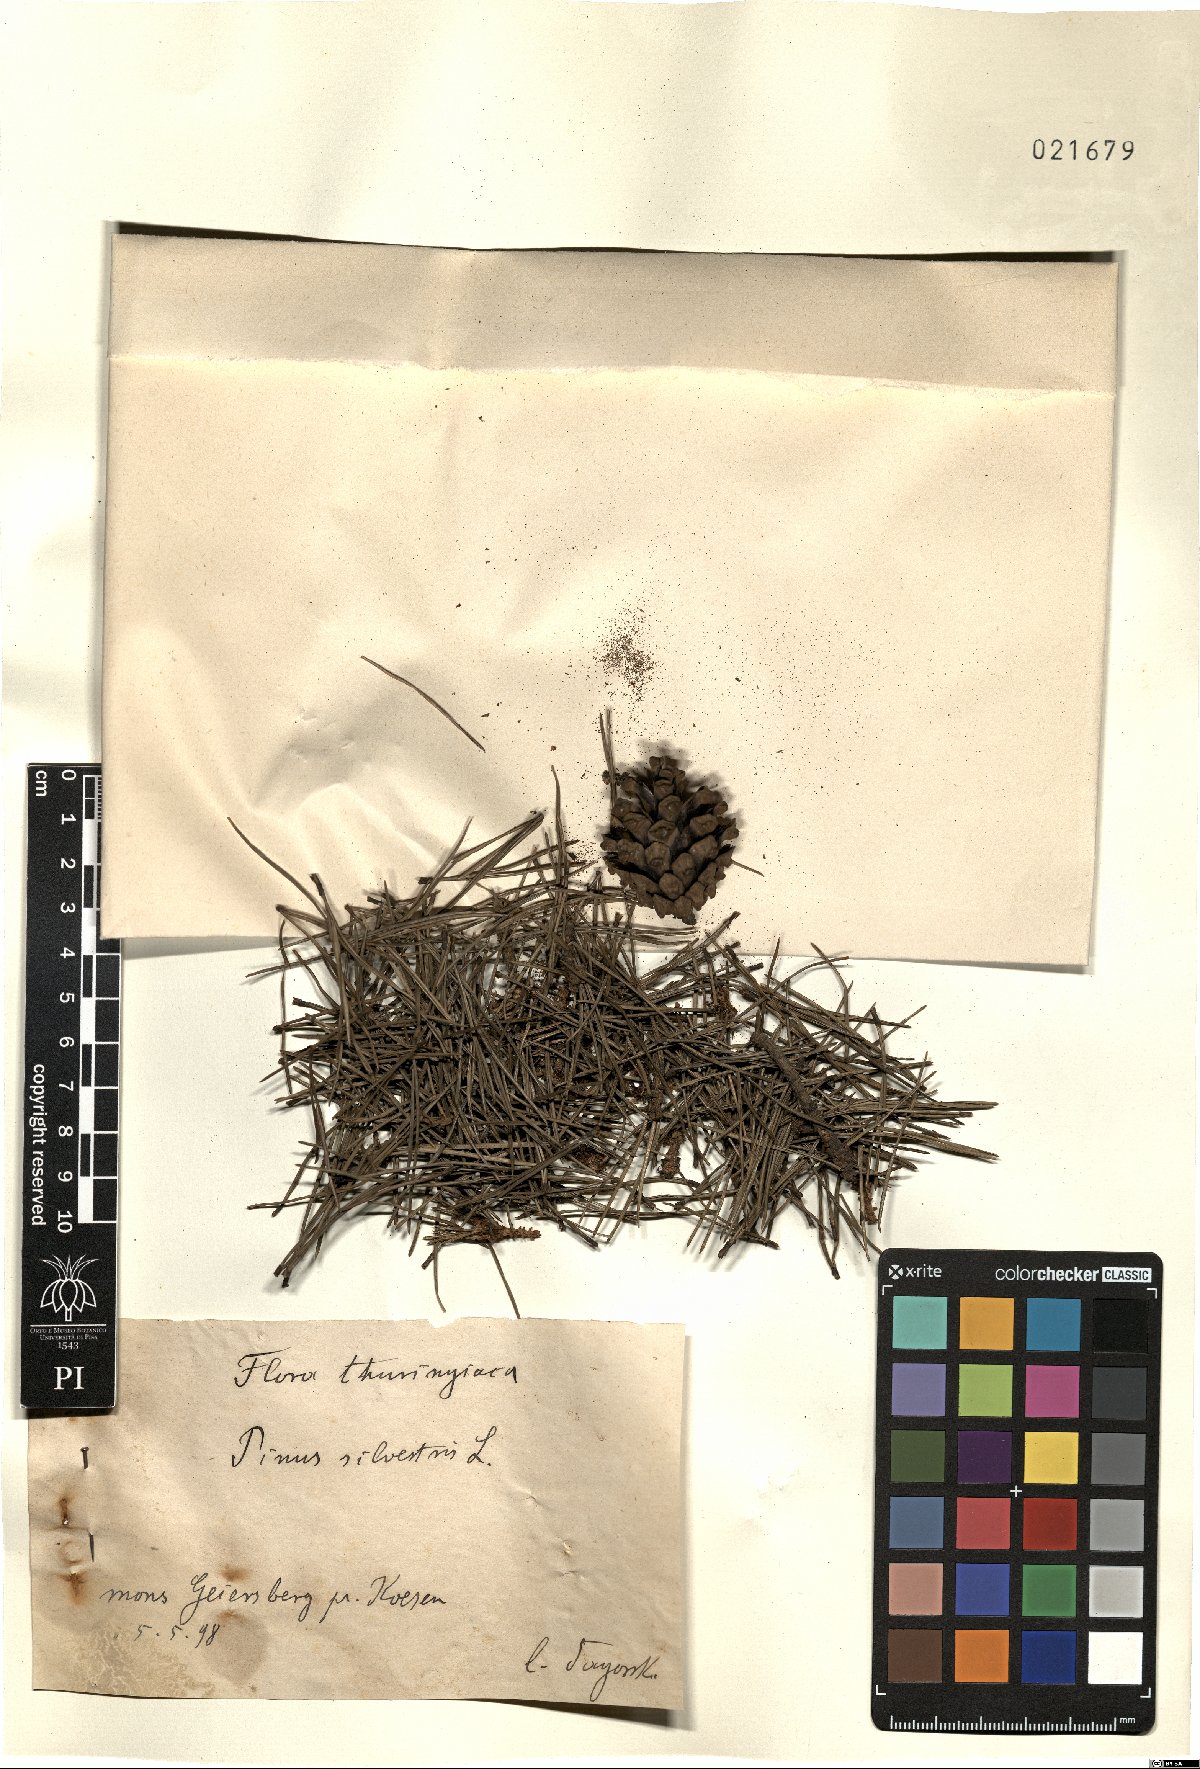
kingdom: Plantae
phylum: Tracheophyta
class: Pinopsida
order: Pinales
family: Pinaceae
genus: Pinus
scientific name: Pinus sylvestris
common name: Scots pine
